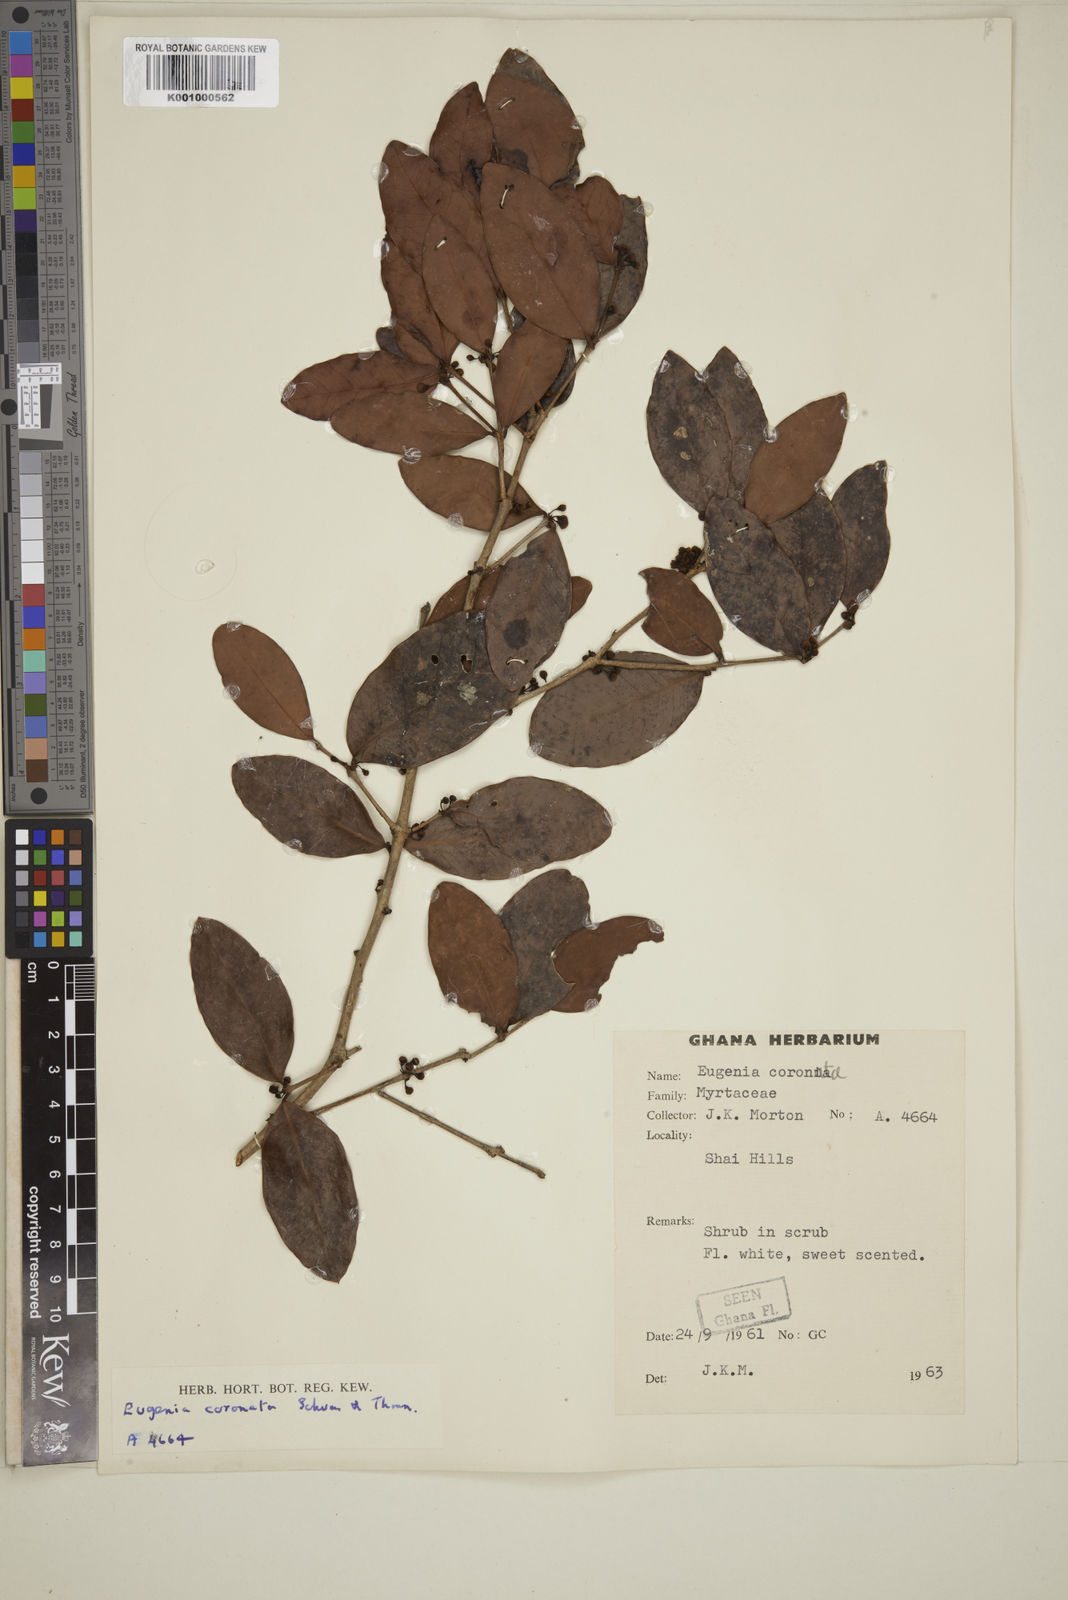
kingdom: Plantae
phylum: Tracheophyta
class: Magnoliopsida
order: Myrtales
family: Myrtaceae
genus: Eugenia
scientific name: Eugenia coronata
